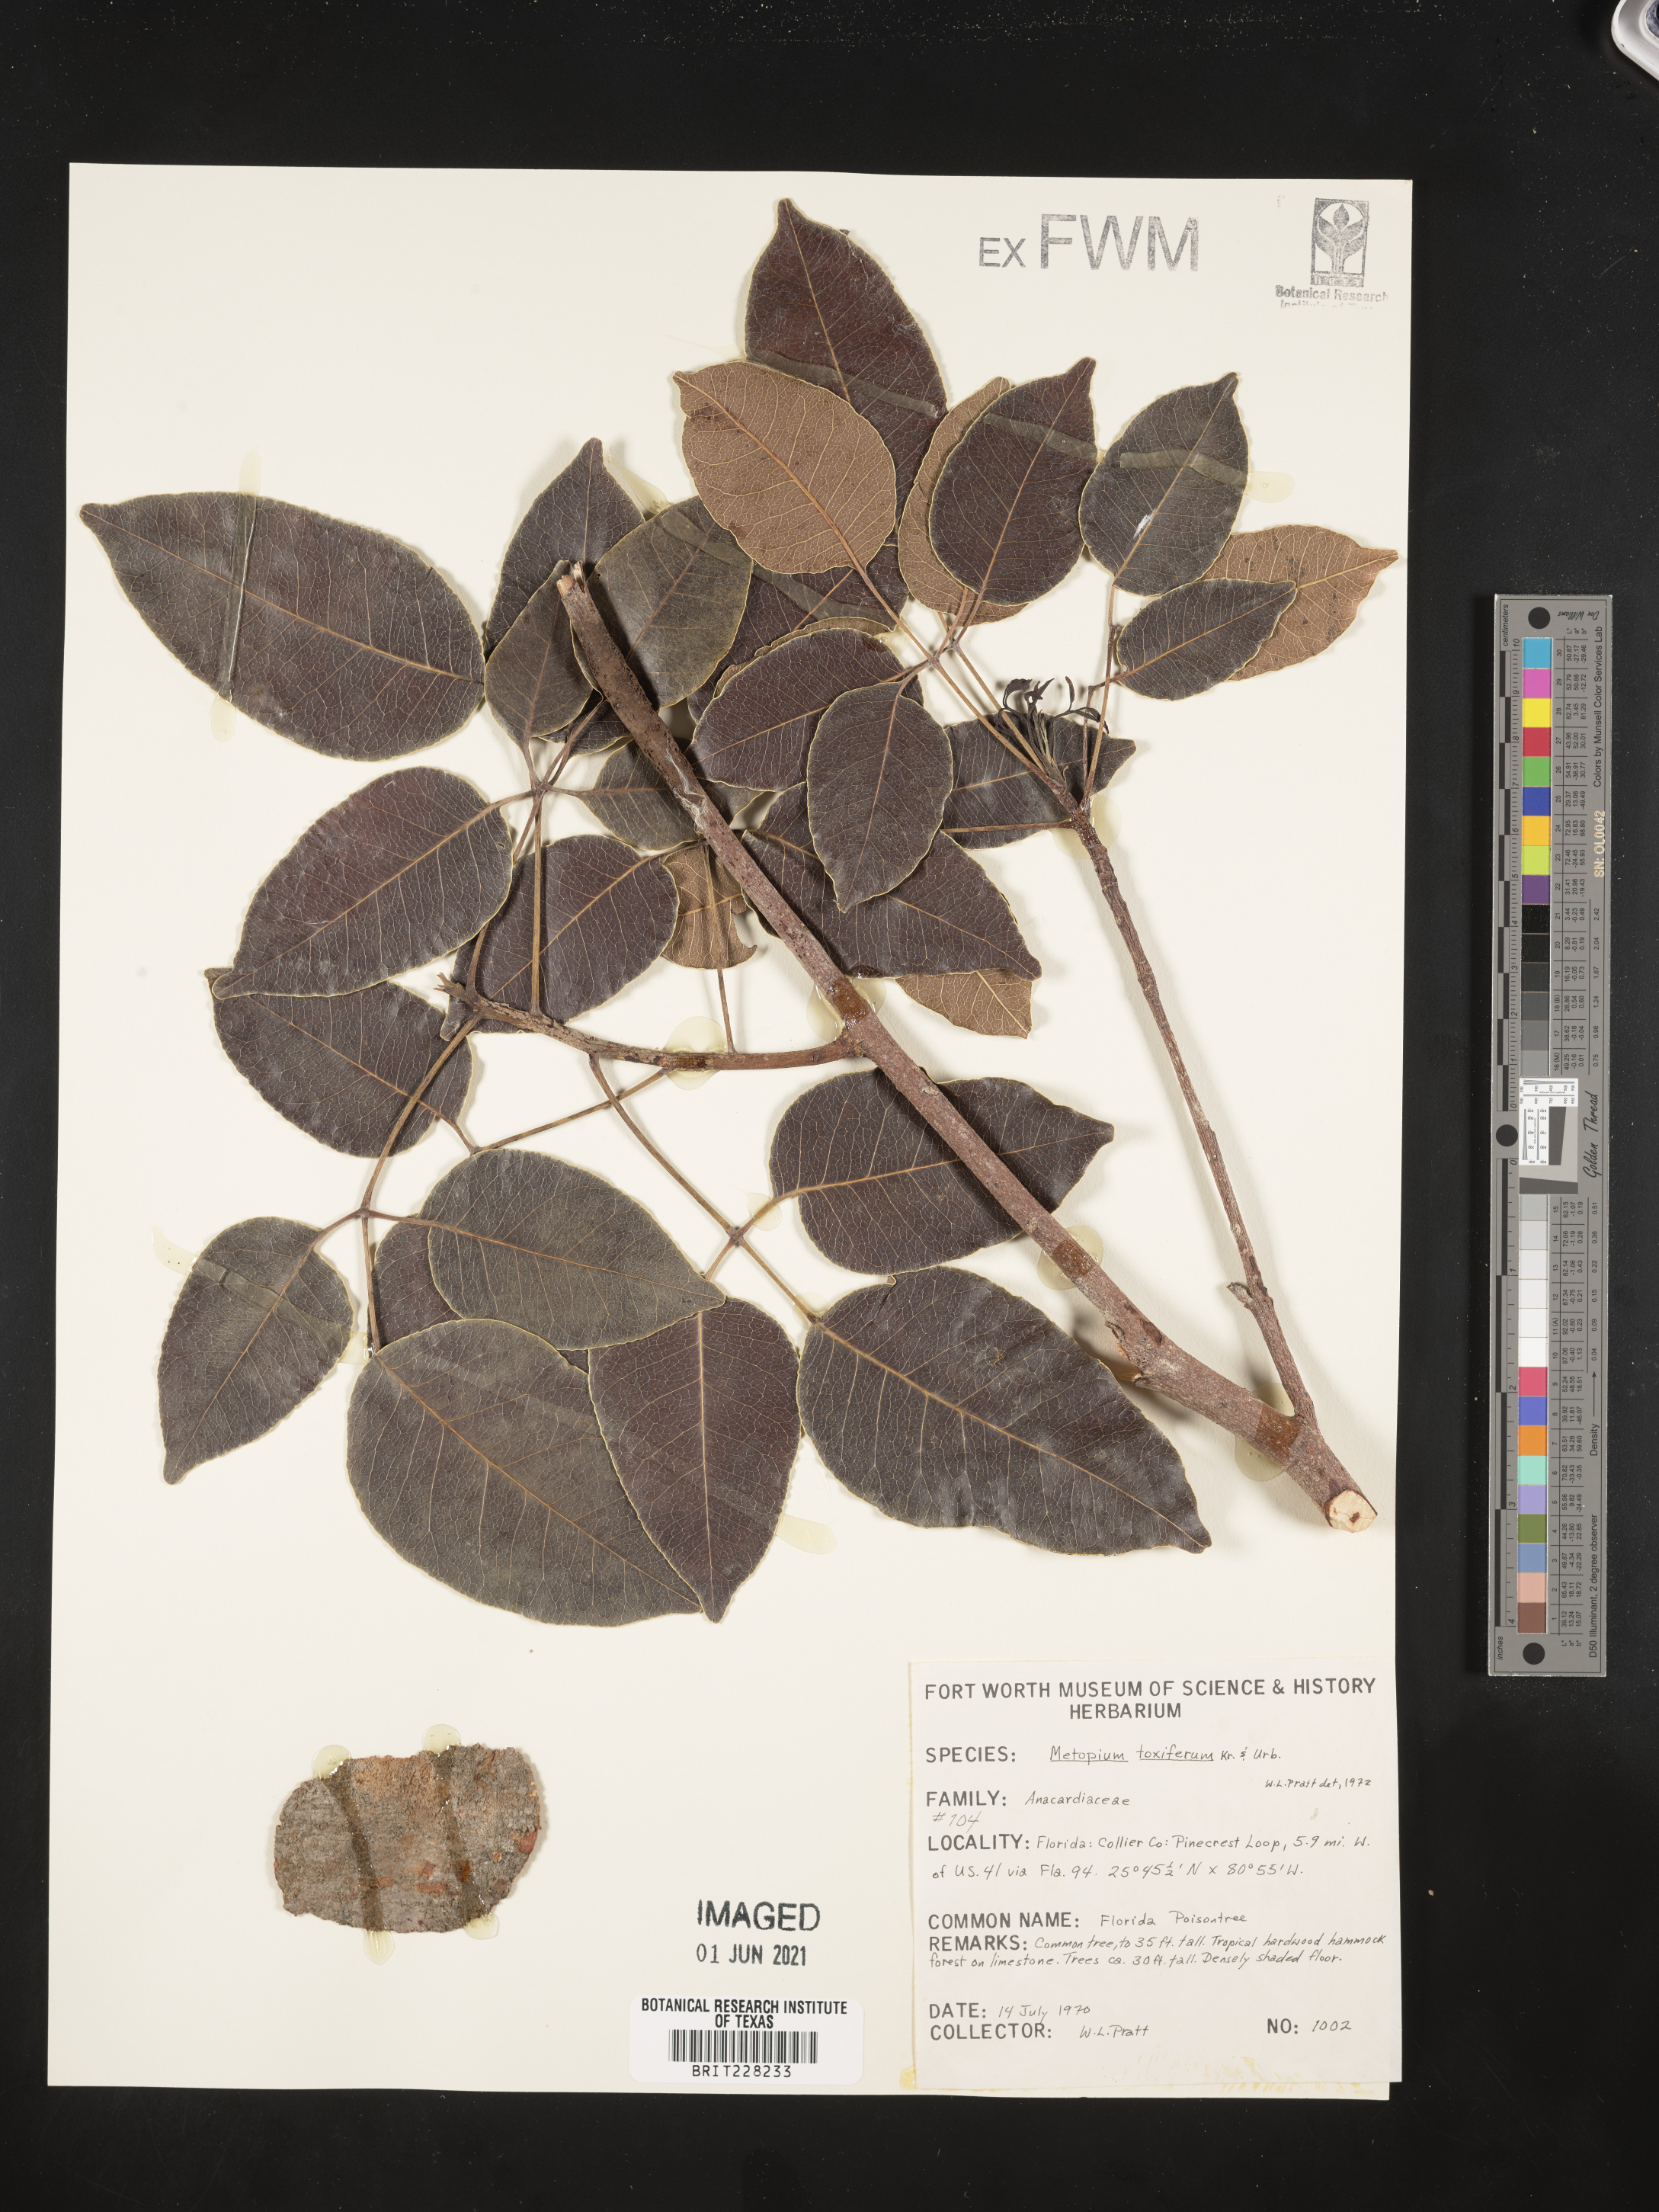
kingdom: Plantae
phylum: Tracheophyta
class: Magnoliopsida
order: Sapindales
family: Anacardiaceae
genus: Metopium
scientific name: Metopium toxiferum
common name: Florida poisontree
